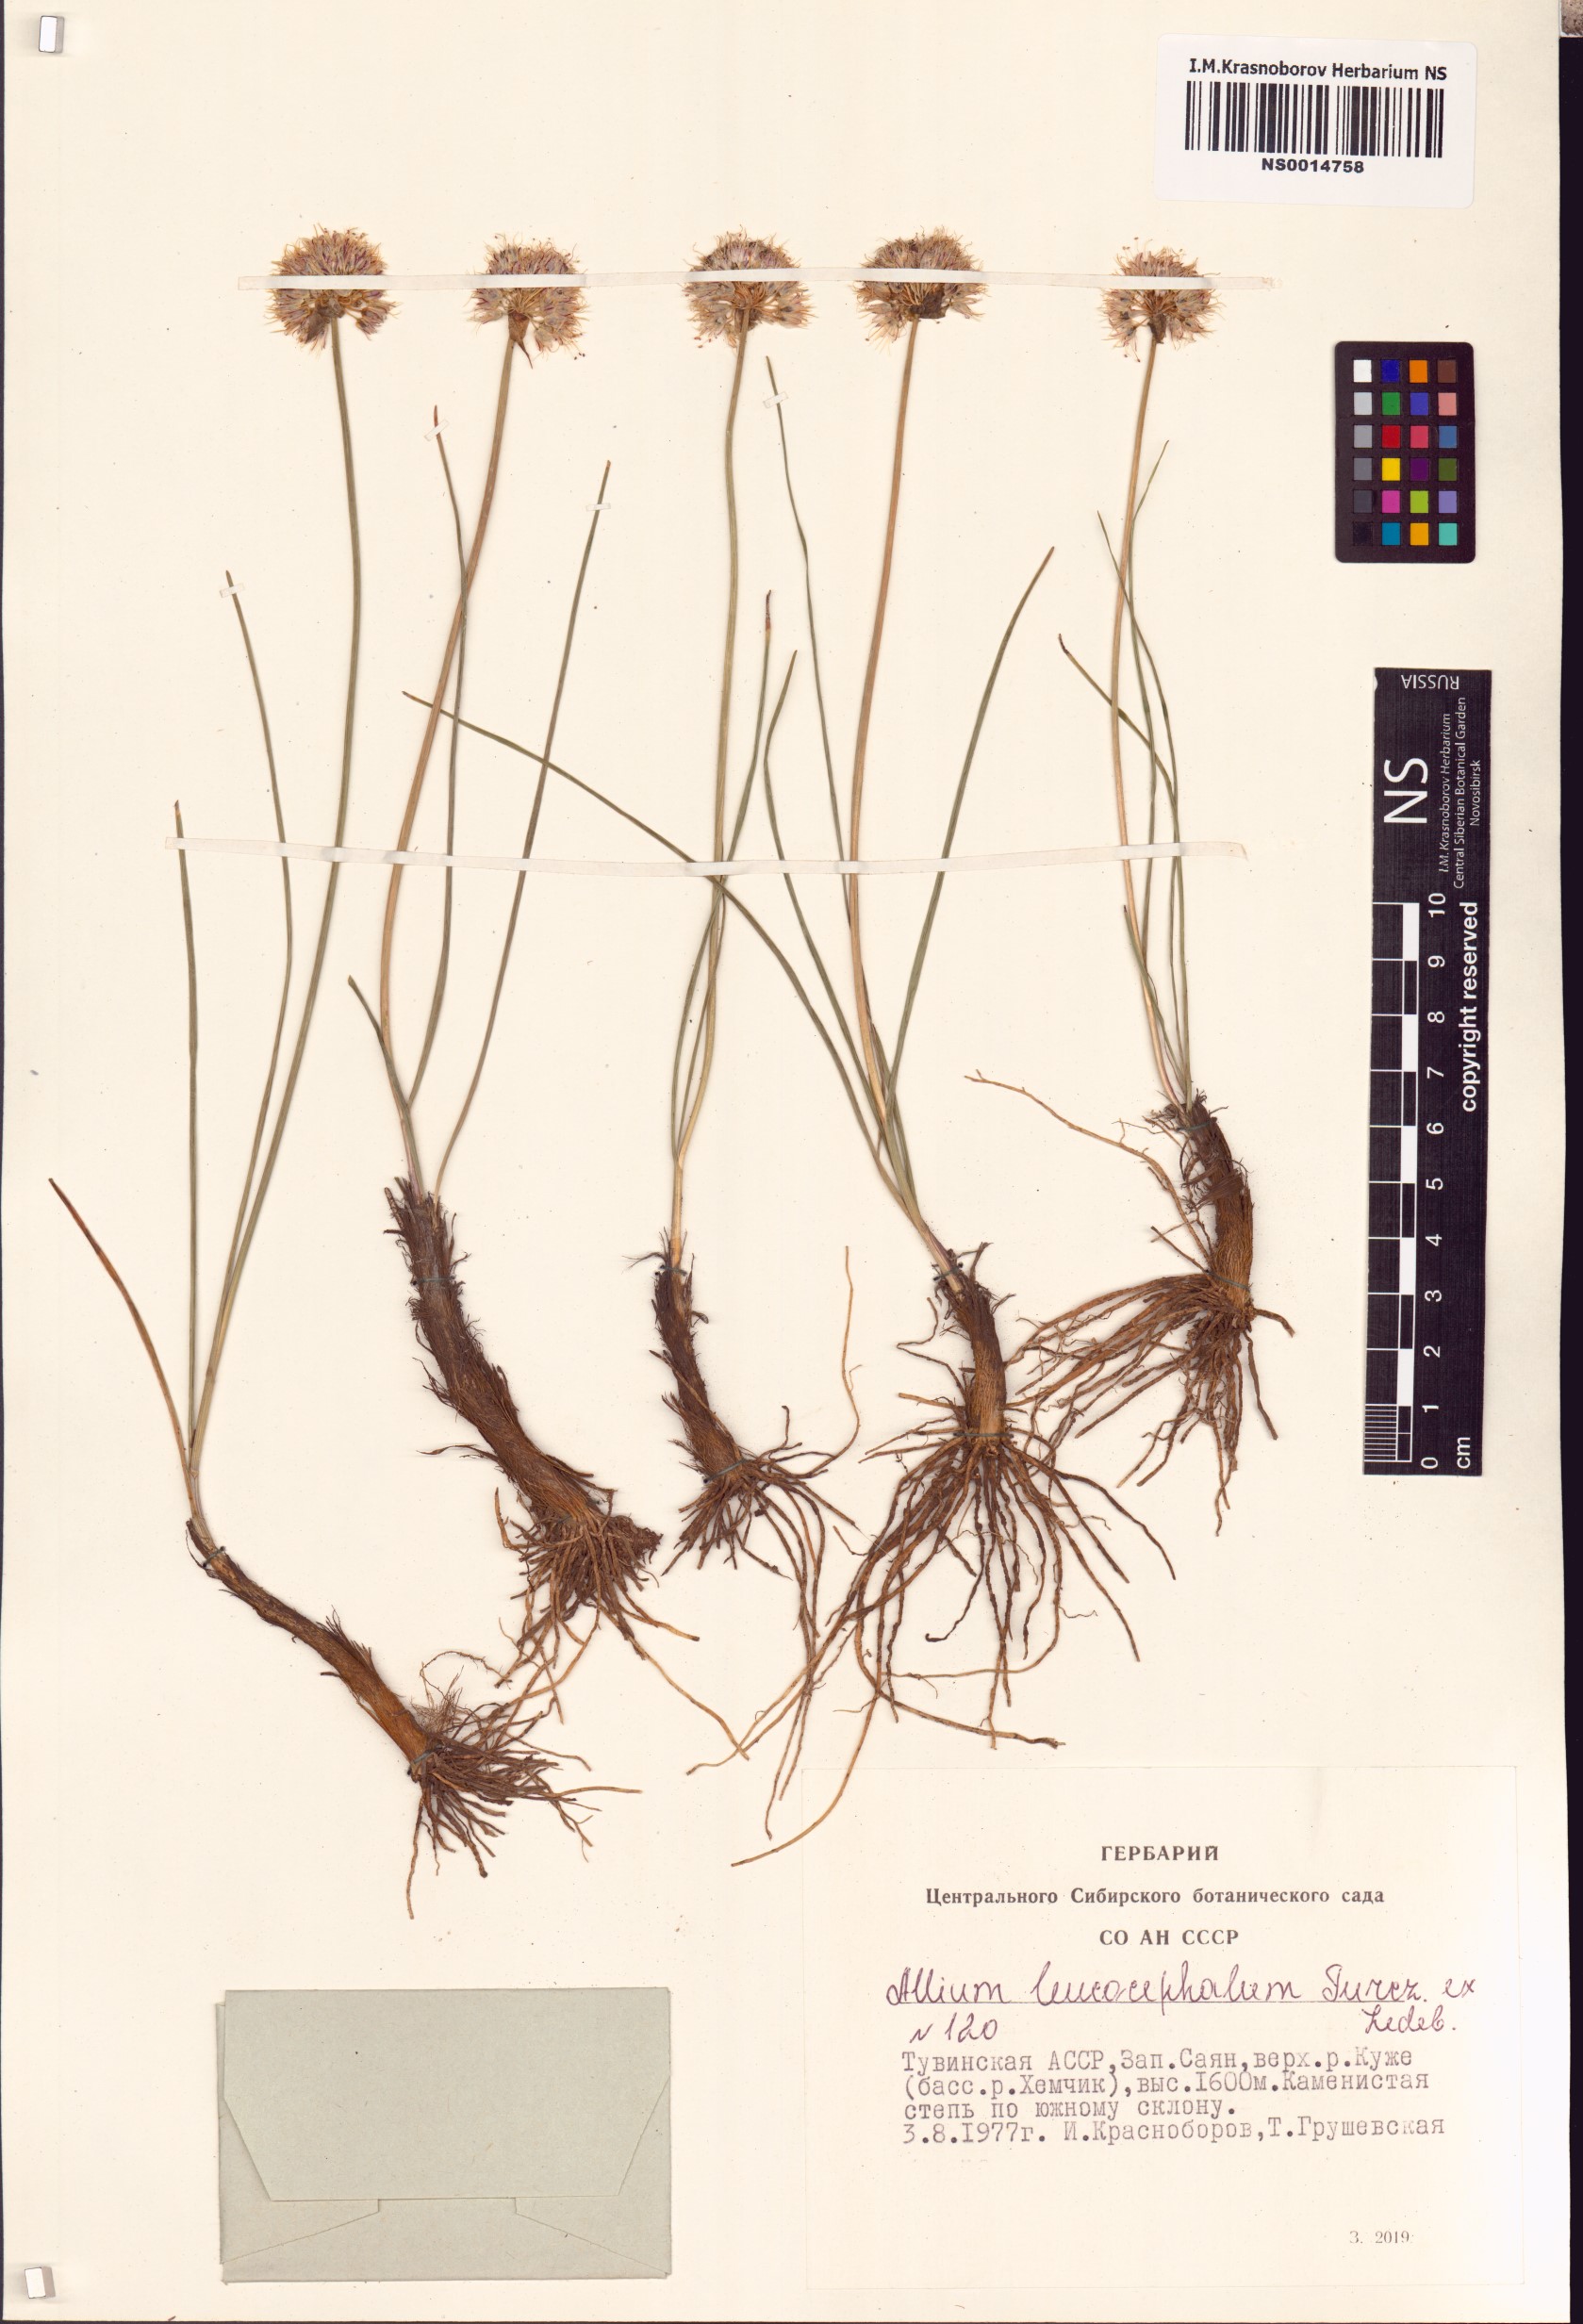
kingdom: Plantae
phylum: Tracheophyta
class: Liliopsida
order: Asparagales
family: Amaryllidaceae
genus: Allium
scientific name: Allium leucocephalum
